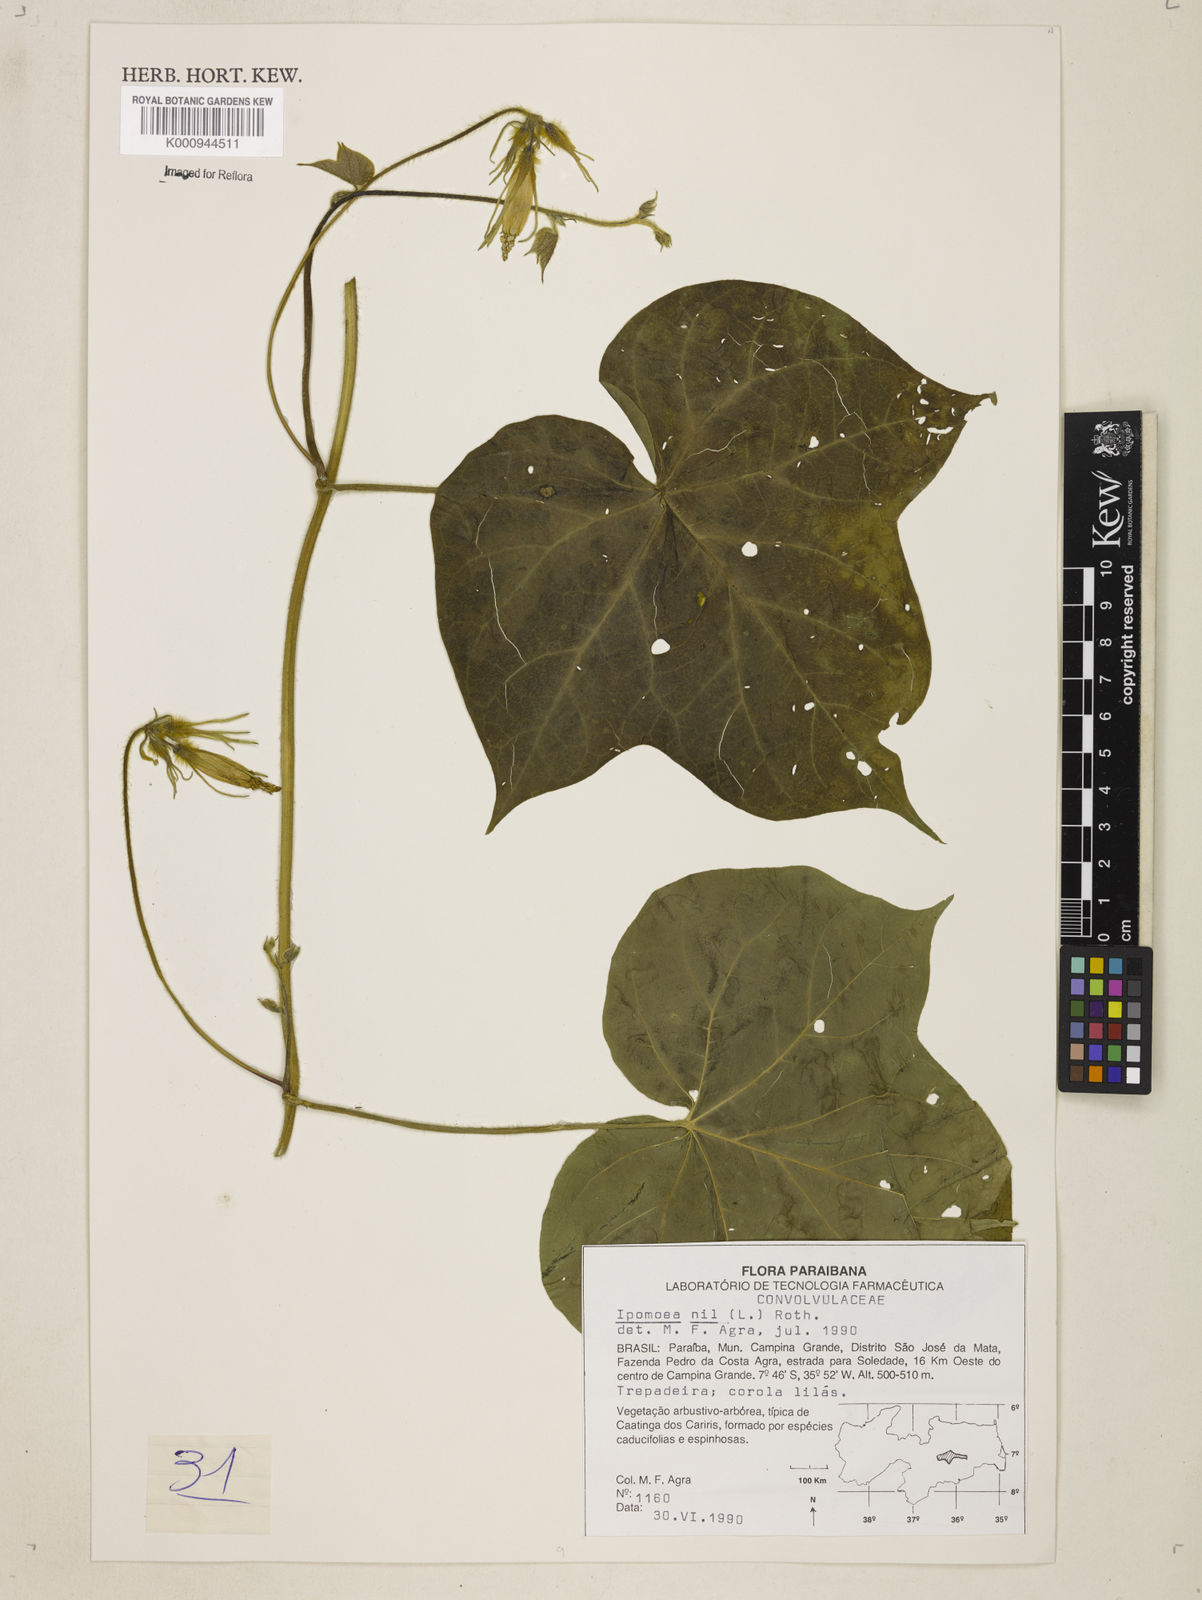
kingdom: Plantae
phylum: Tracheophyta
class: Magnoliopsida
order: Solanales
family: Convolvulaceae
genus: Ipomoea
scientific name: Ipomoea nil
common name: Japanese morning-glory
